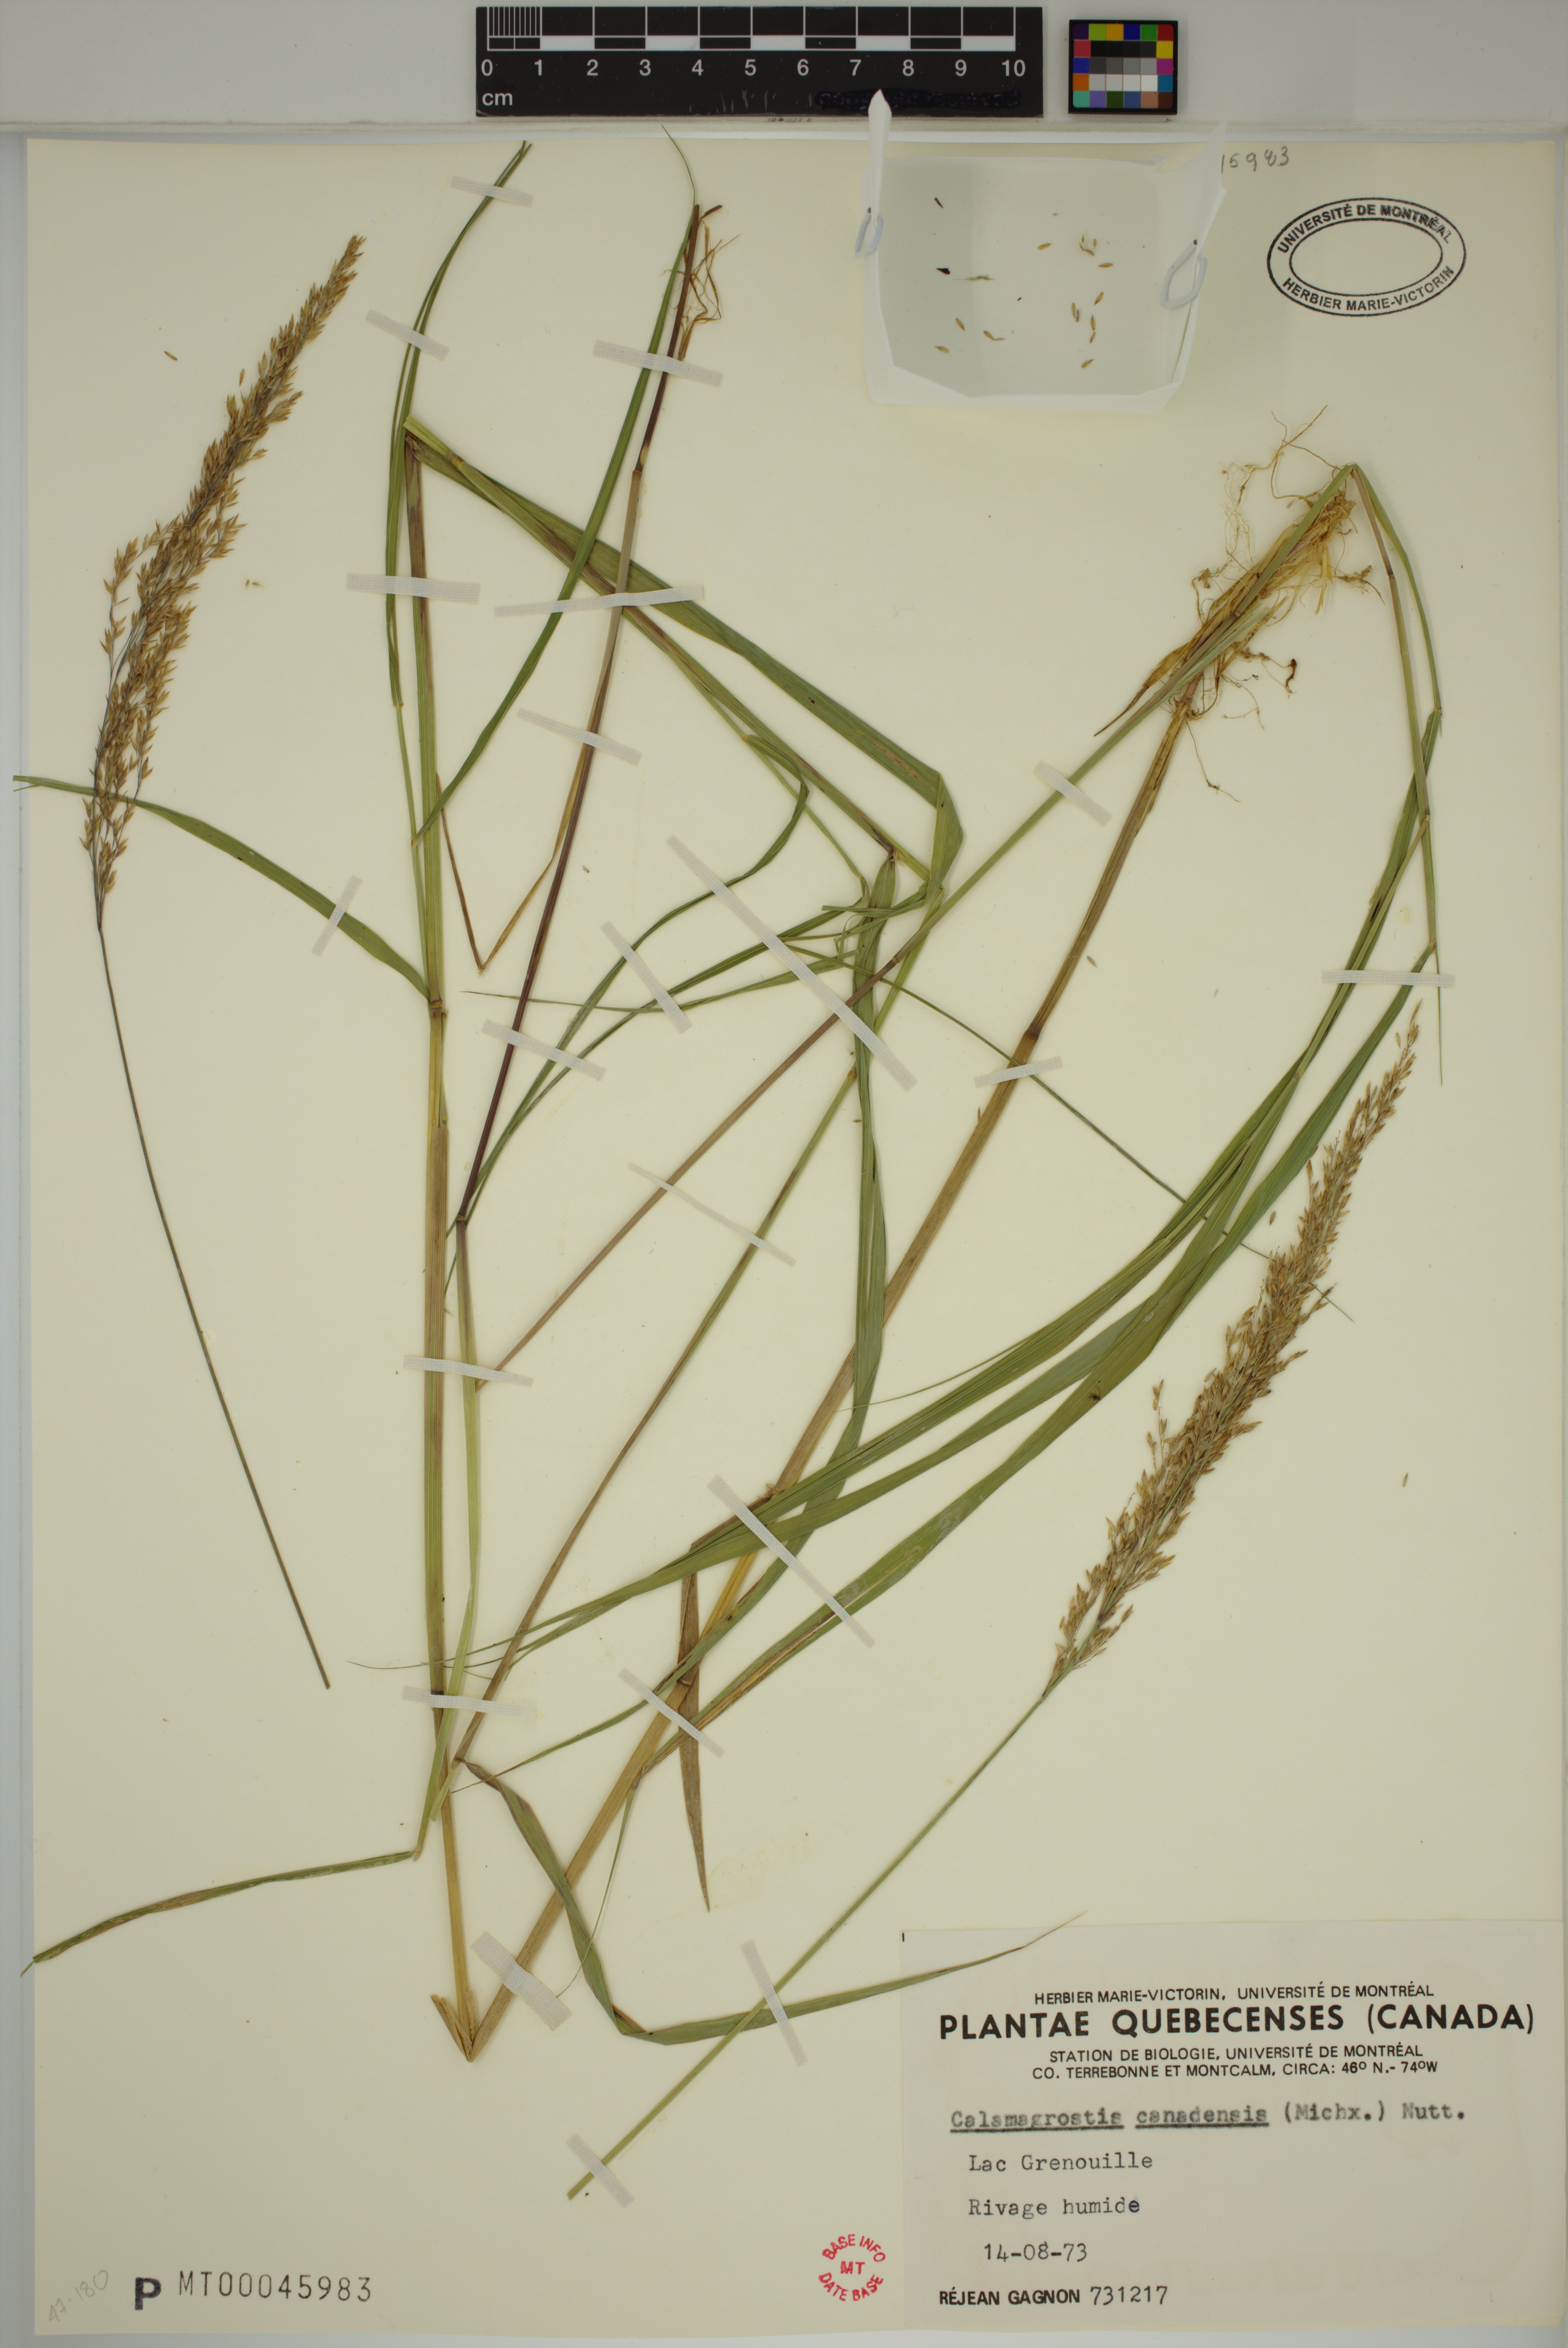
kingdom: Plantae
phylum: Tracheophyta
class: Liliopsida
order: Poales
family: Poaceae
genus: Calamagrostis
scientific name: Calamagrostis canadensis
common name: Canada bluejoint
